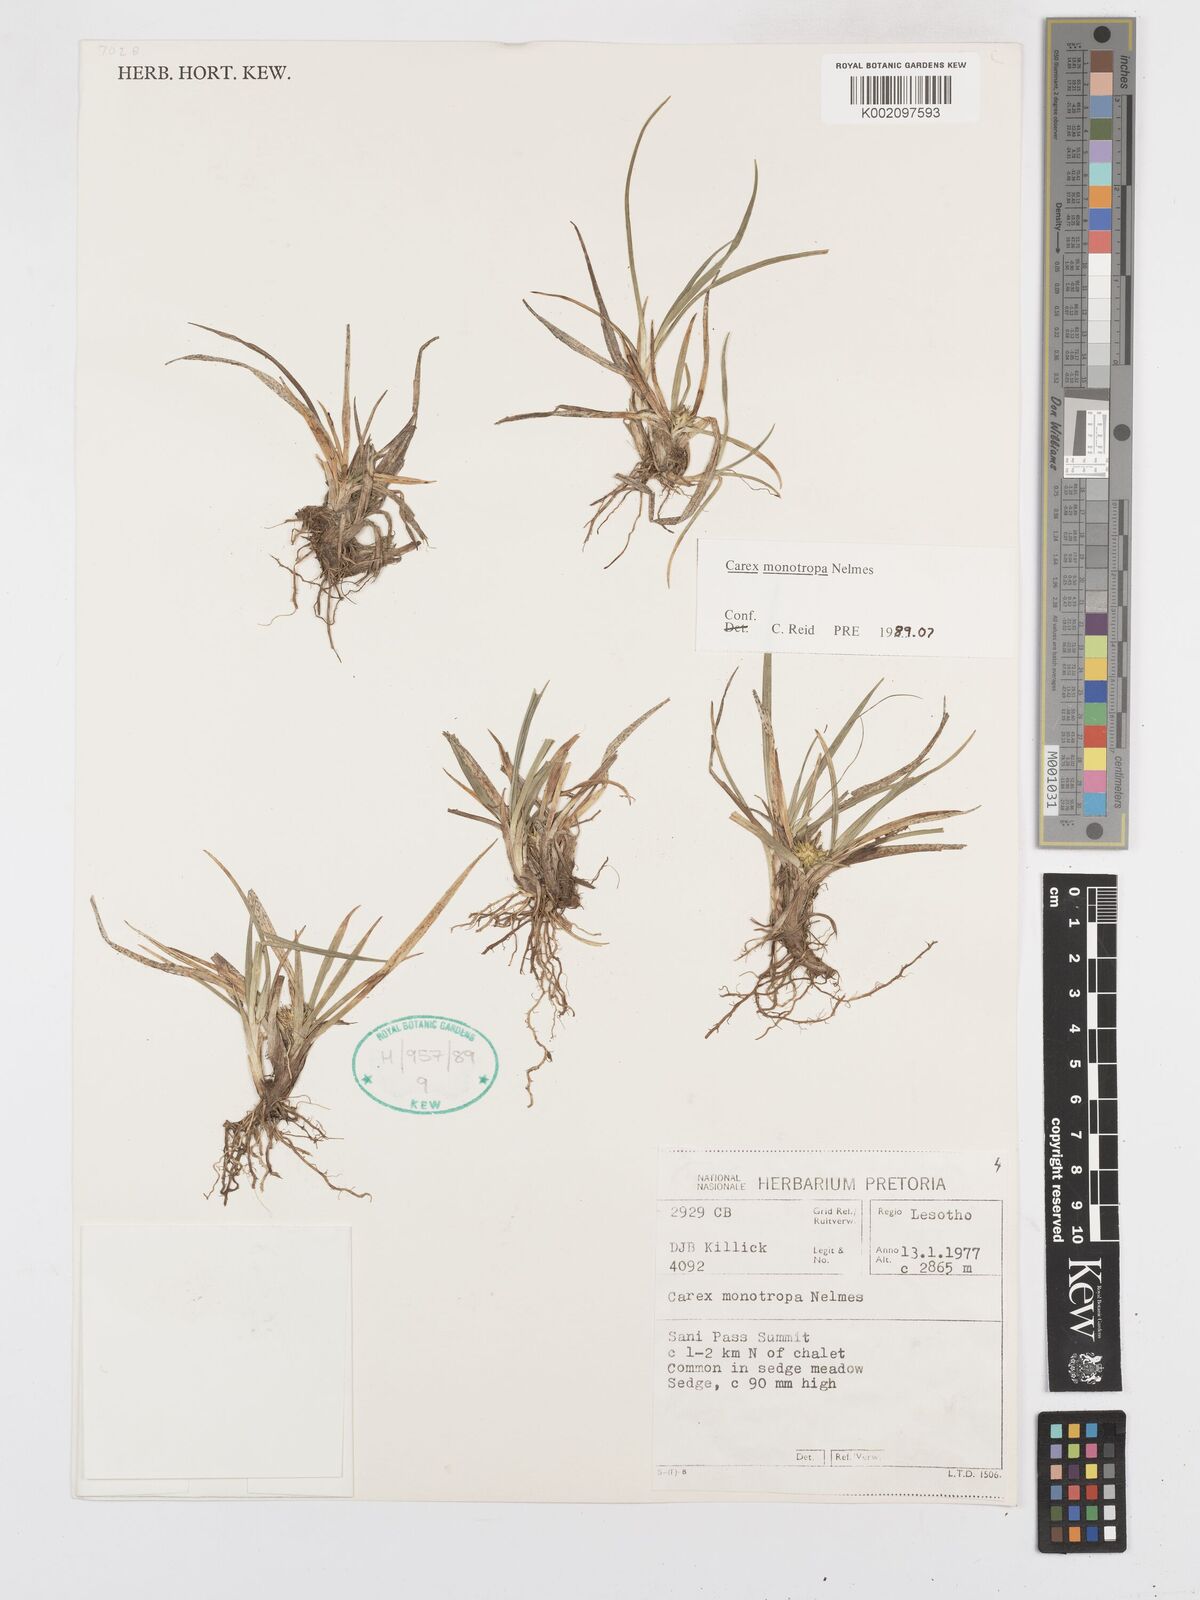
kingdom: Plantae
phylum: Tracheophyta
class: Liliopsida
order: Poales
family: Cyperaceae
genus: Carex
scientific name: Carex monotropa
